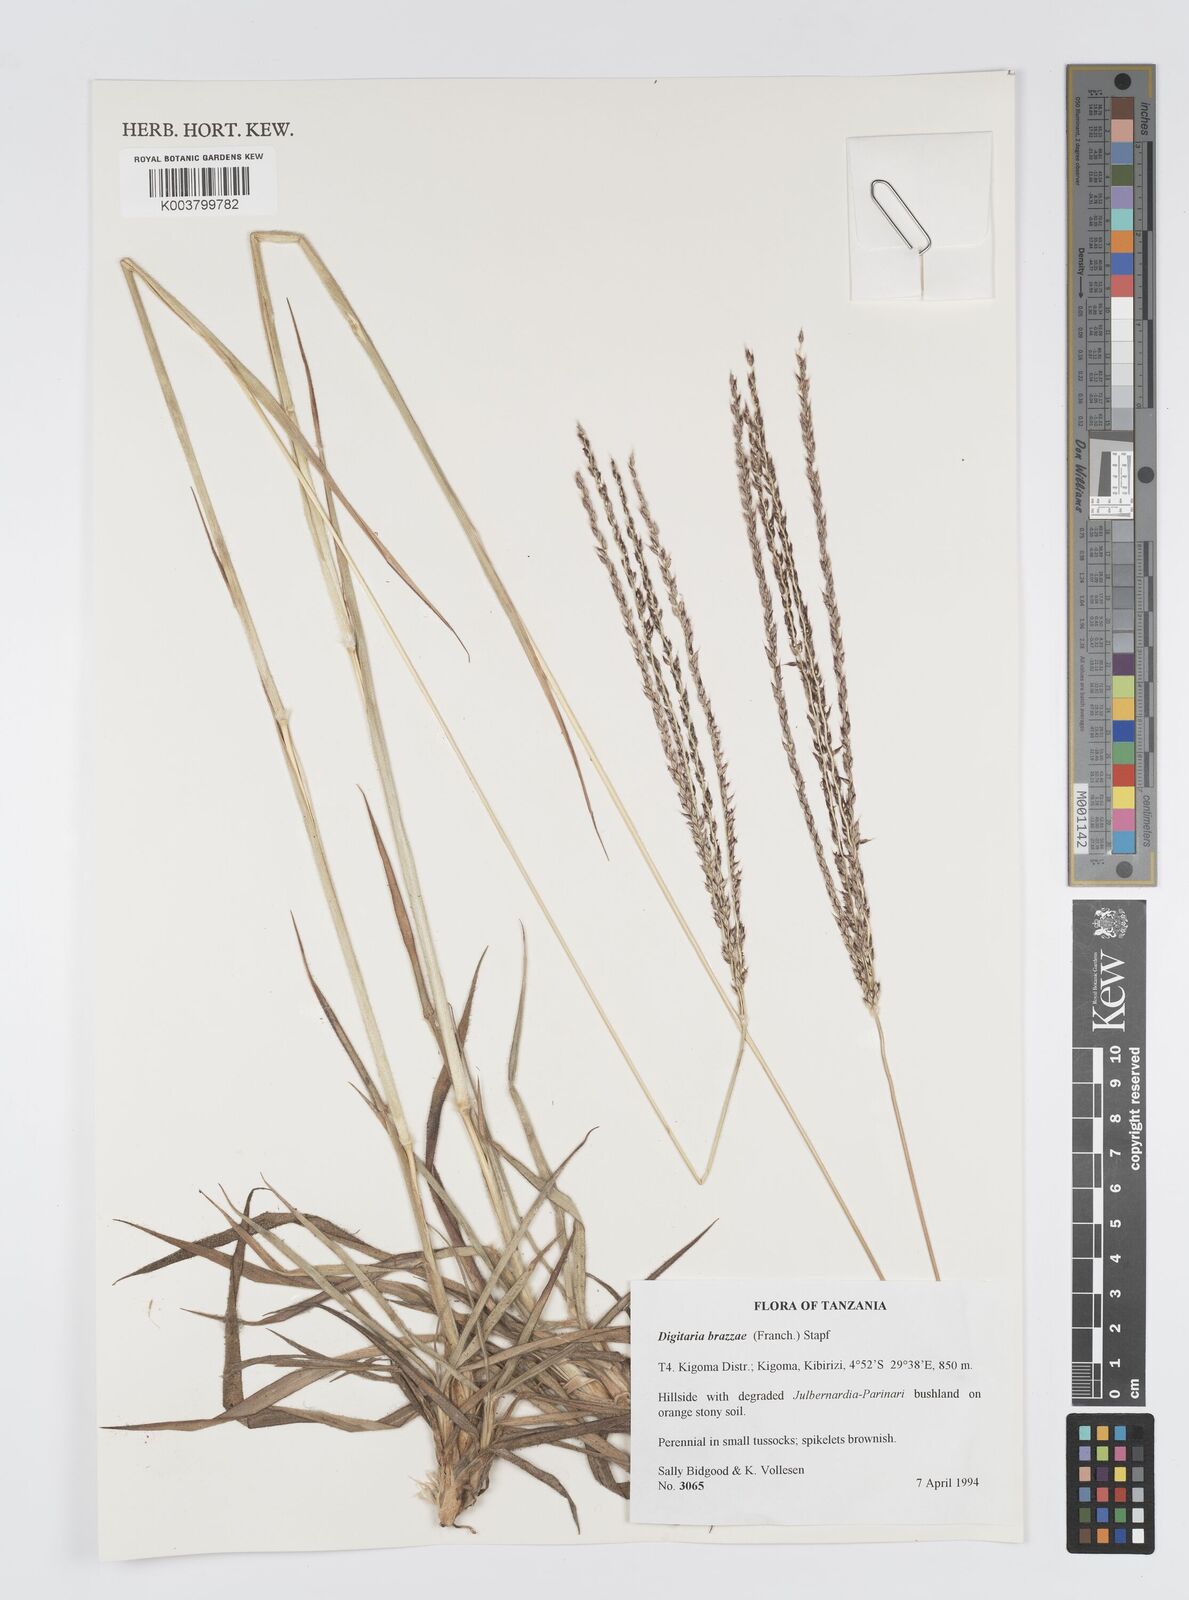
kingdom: Plantae
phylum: Tracheophyta
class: Liliopsida
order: Poales
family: Poaceae
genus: Digitaria
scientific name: Digitaria brazzae
